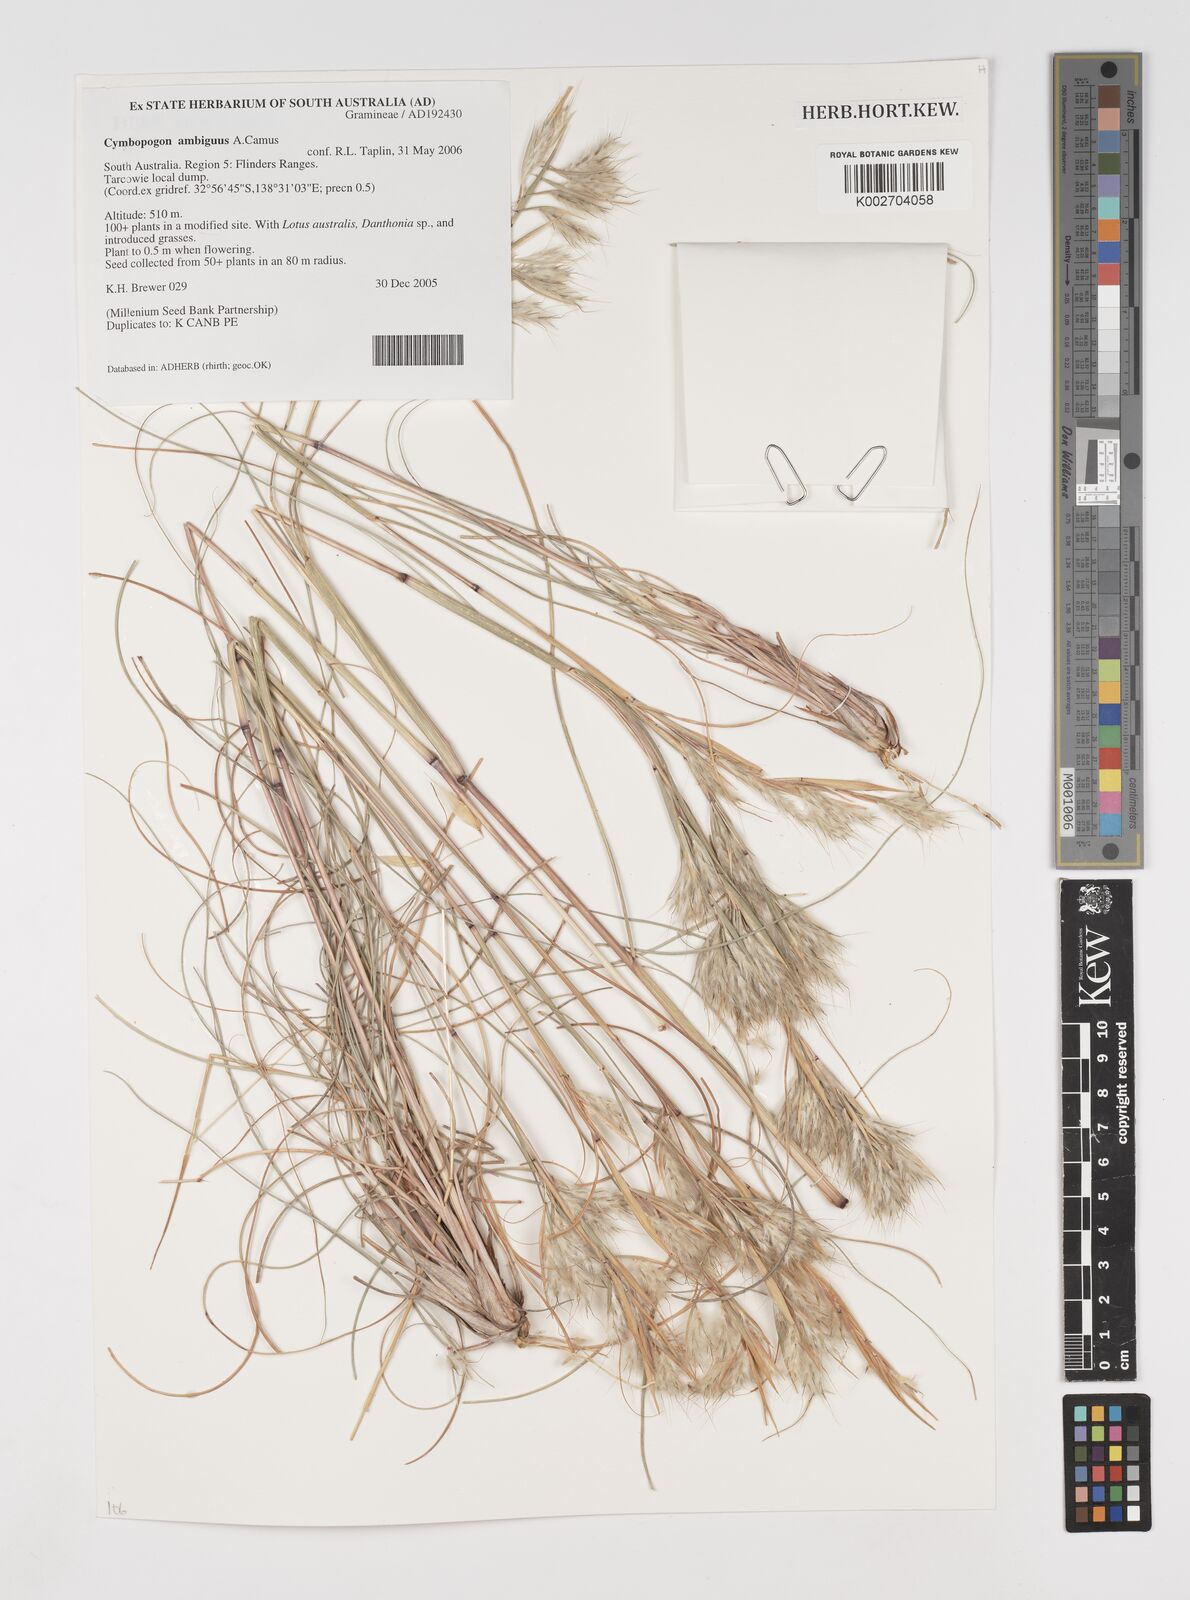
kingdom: Plantae
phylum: Tracheophyta
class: Liliopsida
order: Poales
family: Poaceae
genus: Cymbopogon
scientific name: Cymbopogon ambiguus
